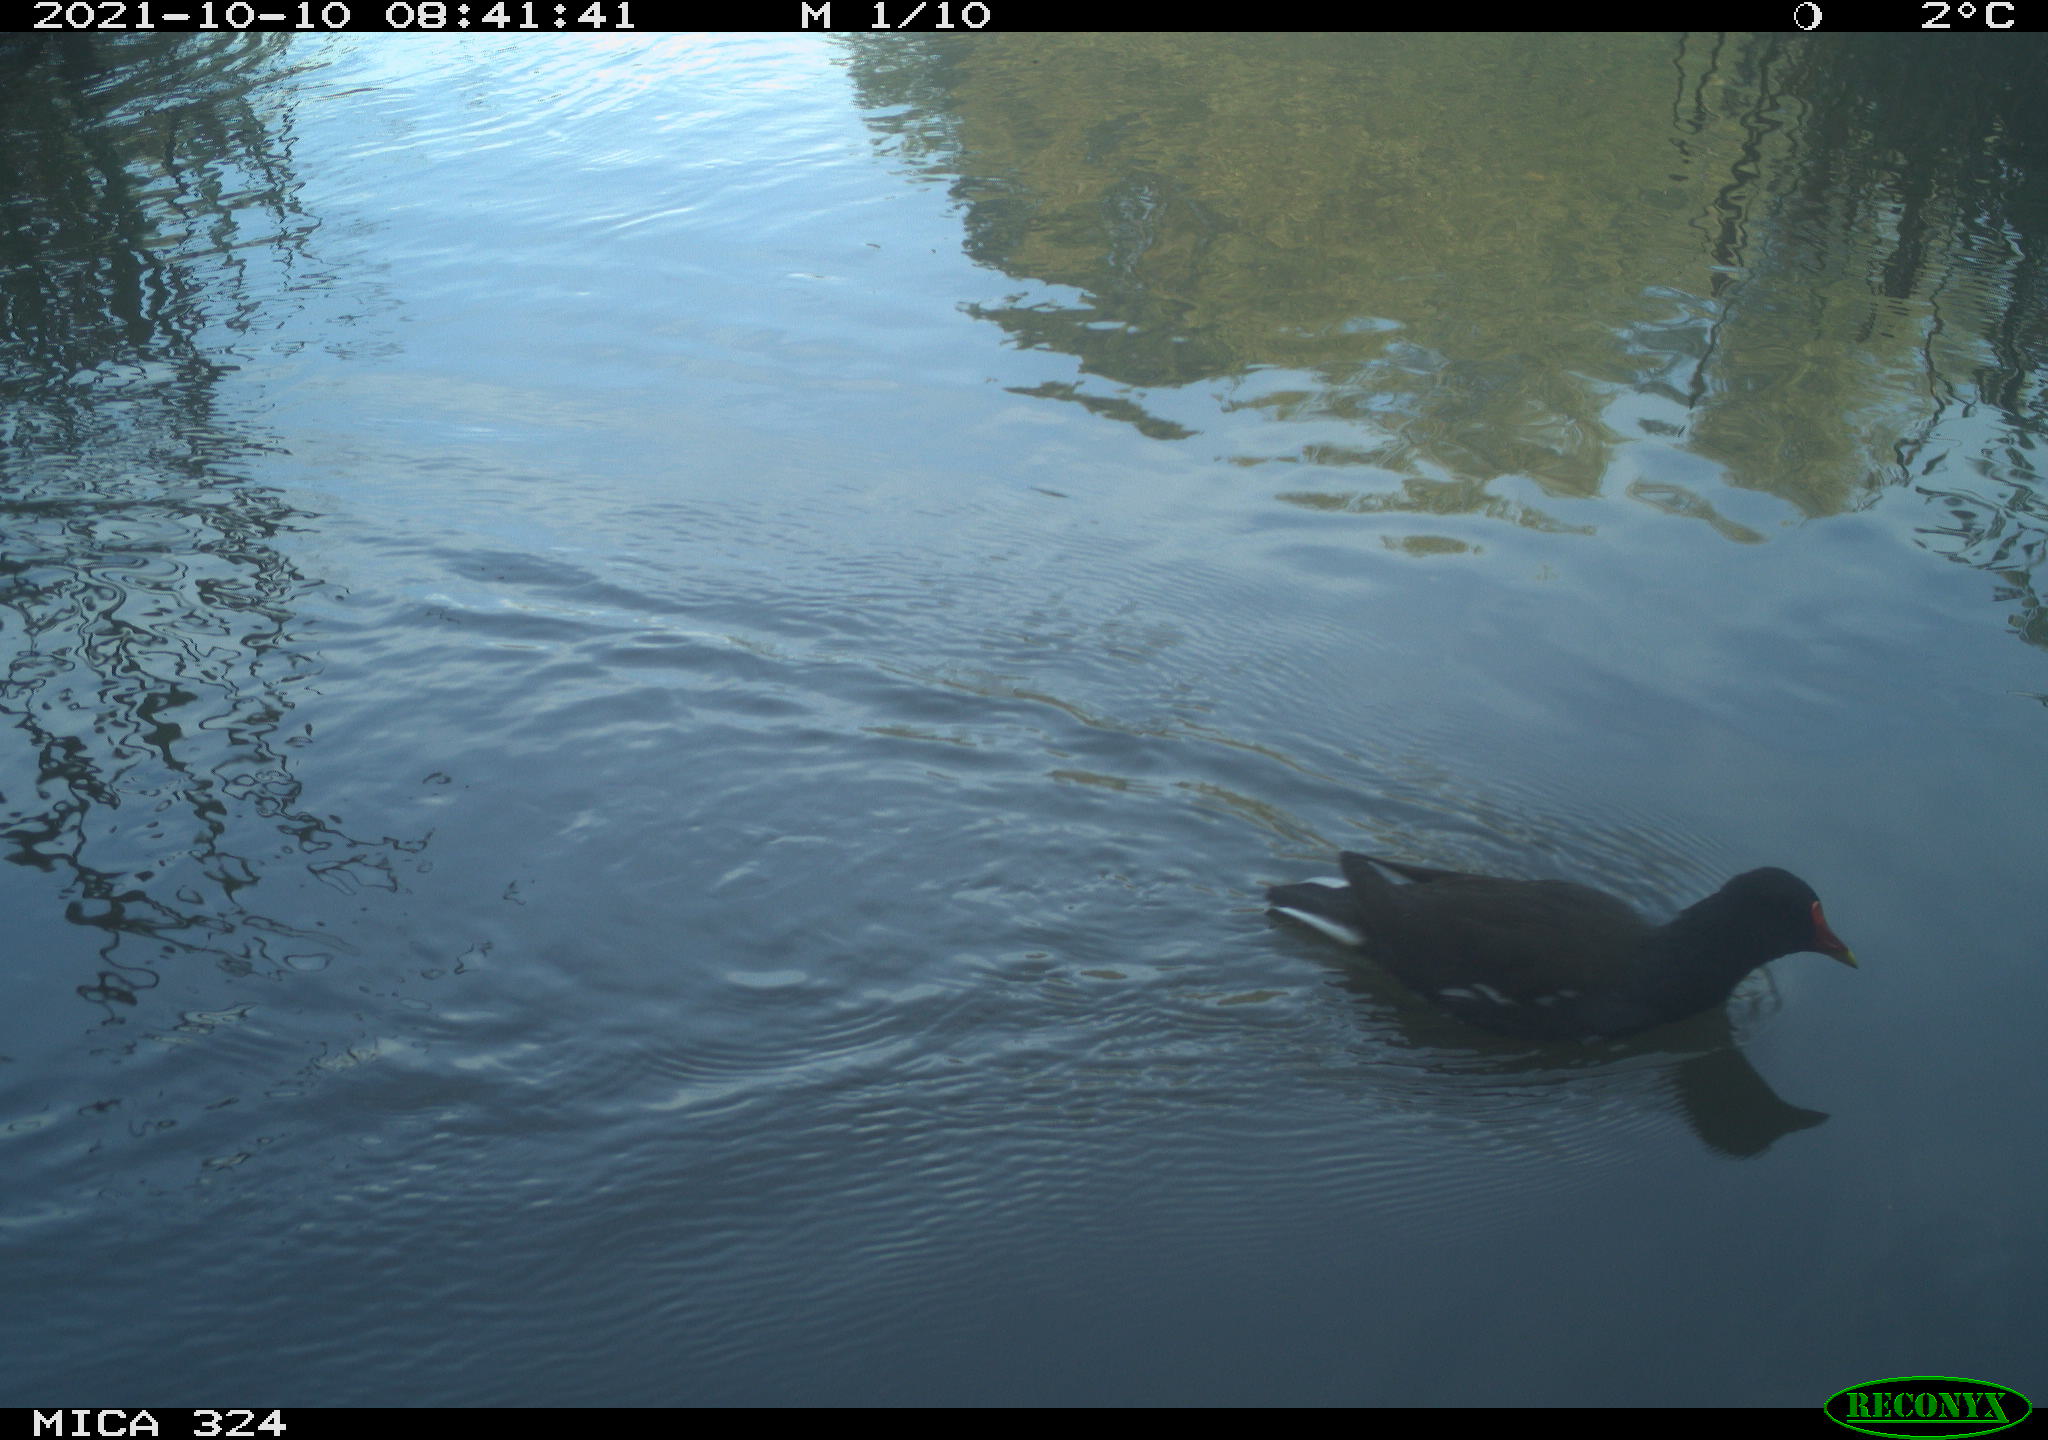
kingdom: Animalia
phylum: Chordata
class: Aves
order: Gruiformes
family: Rallidae
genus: Gallinula
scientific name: Gallinula chloropus
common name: Common moorhen
